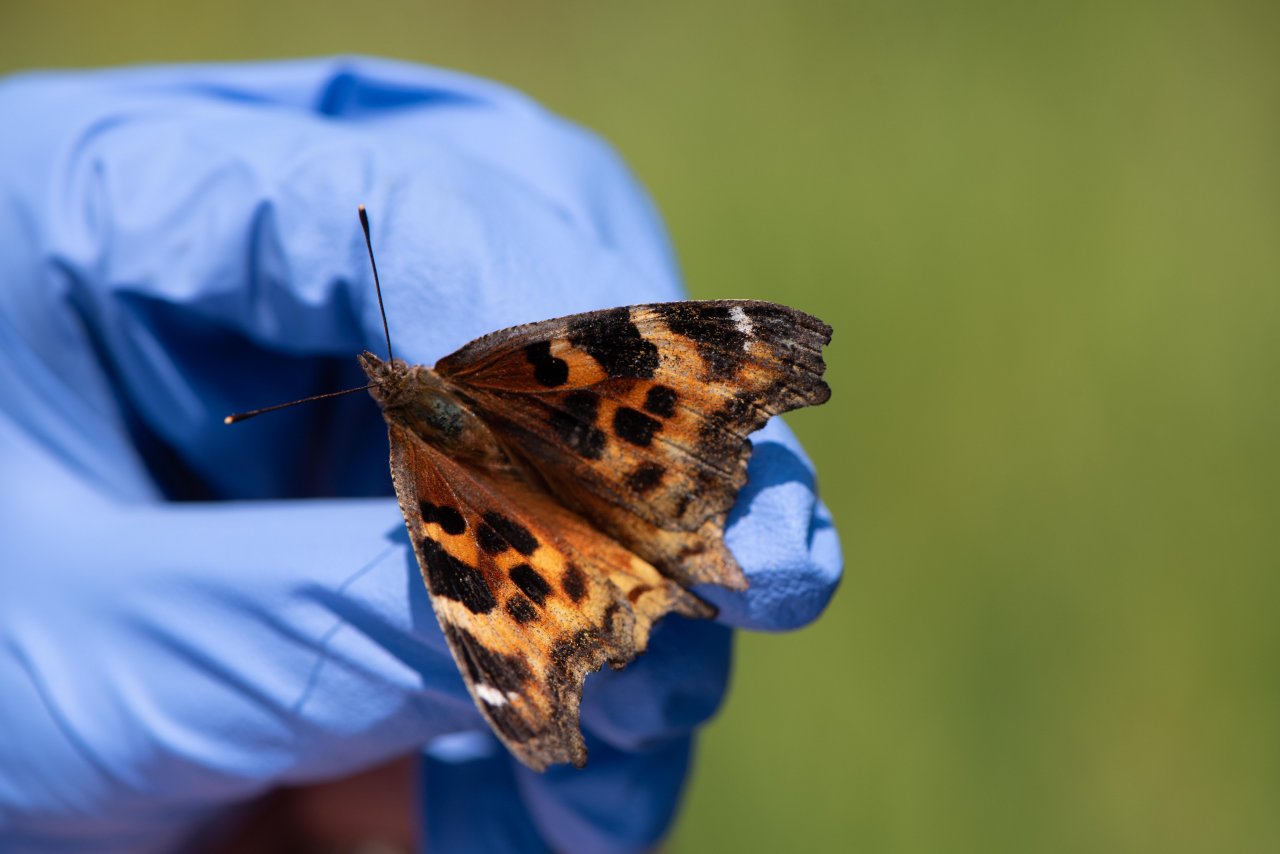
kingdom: Animalia
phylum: Arthropoda
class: Insecta
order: Lepidoptera
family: Nymphalidae
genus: Polygonia
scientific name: Polygonia vaualbum
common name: Compton Tortoiseshell
